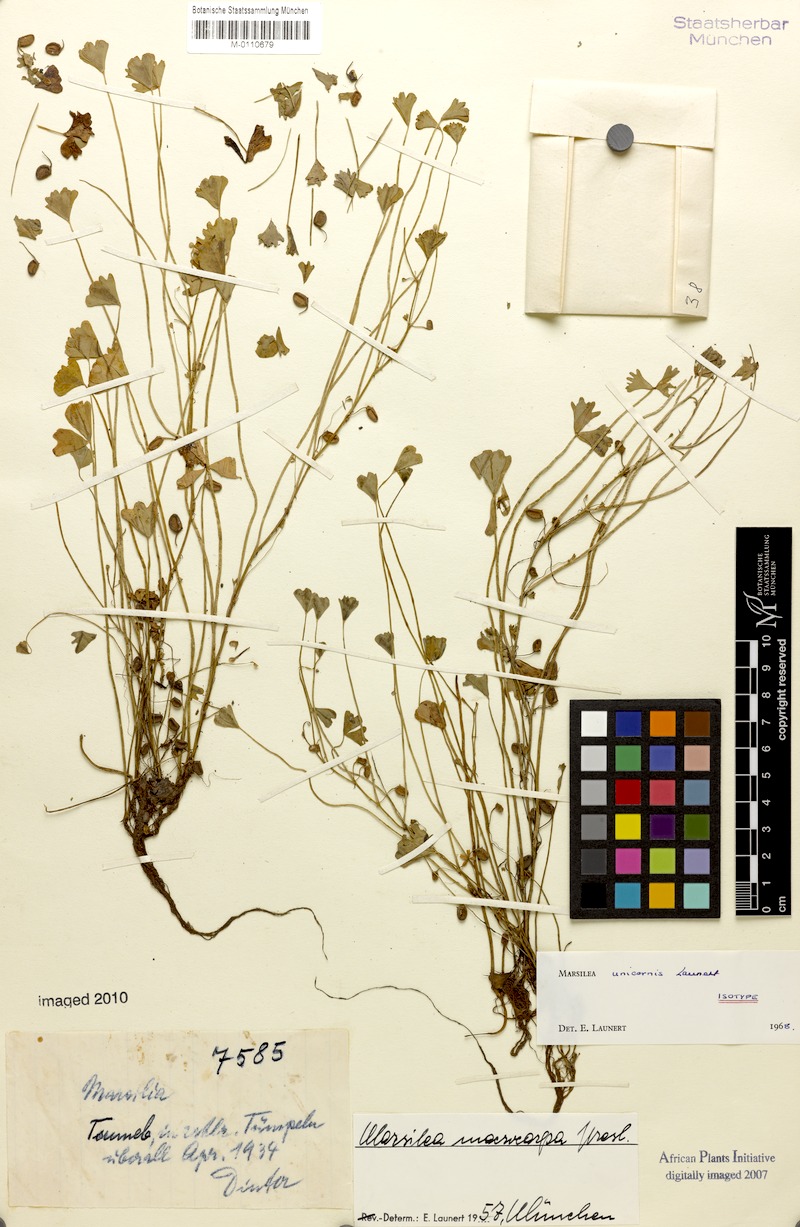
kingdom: Plantae
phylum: Tracheophyta
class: Polypodiopsida
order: Salviniales
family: Marsileaceae
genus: Marsilea
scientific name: Marsilea unicornis
